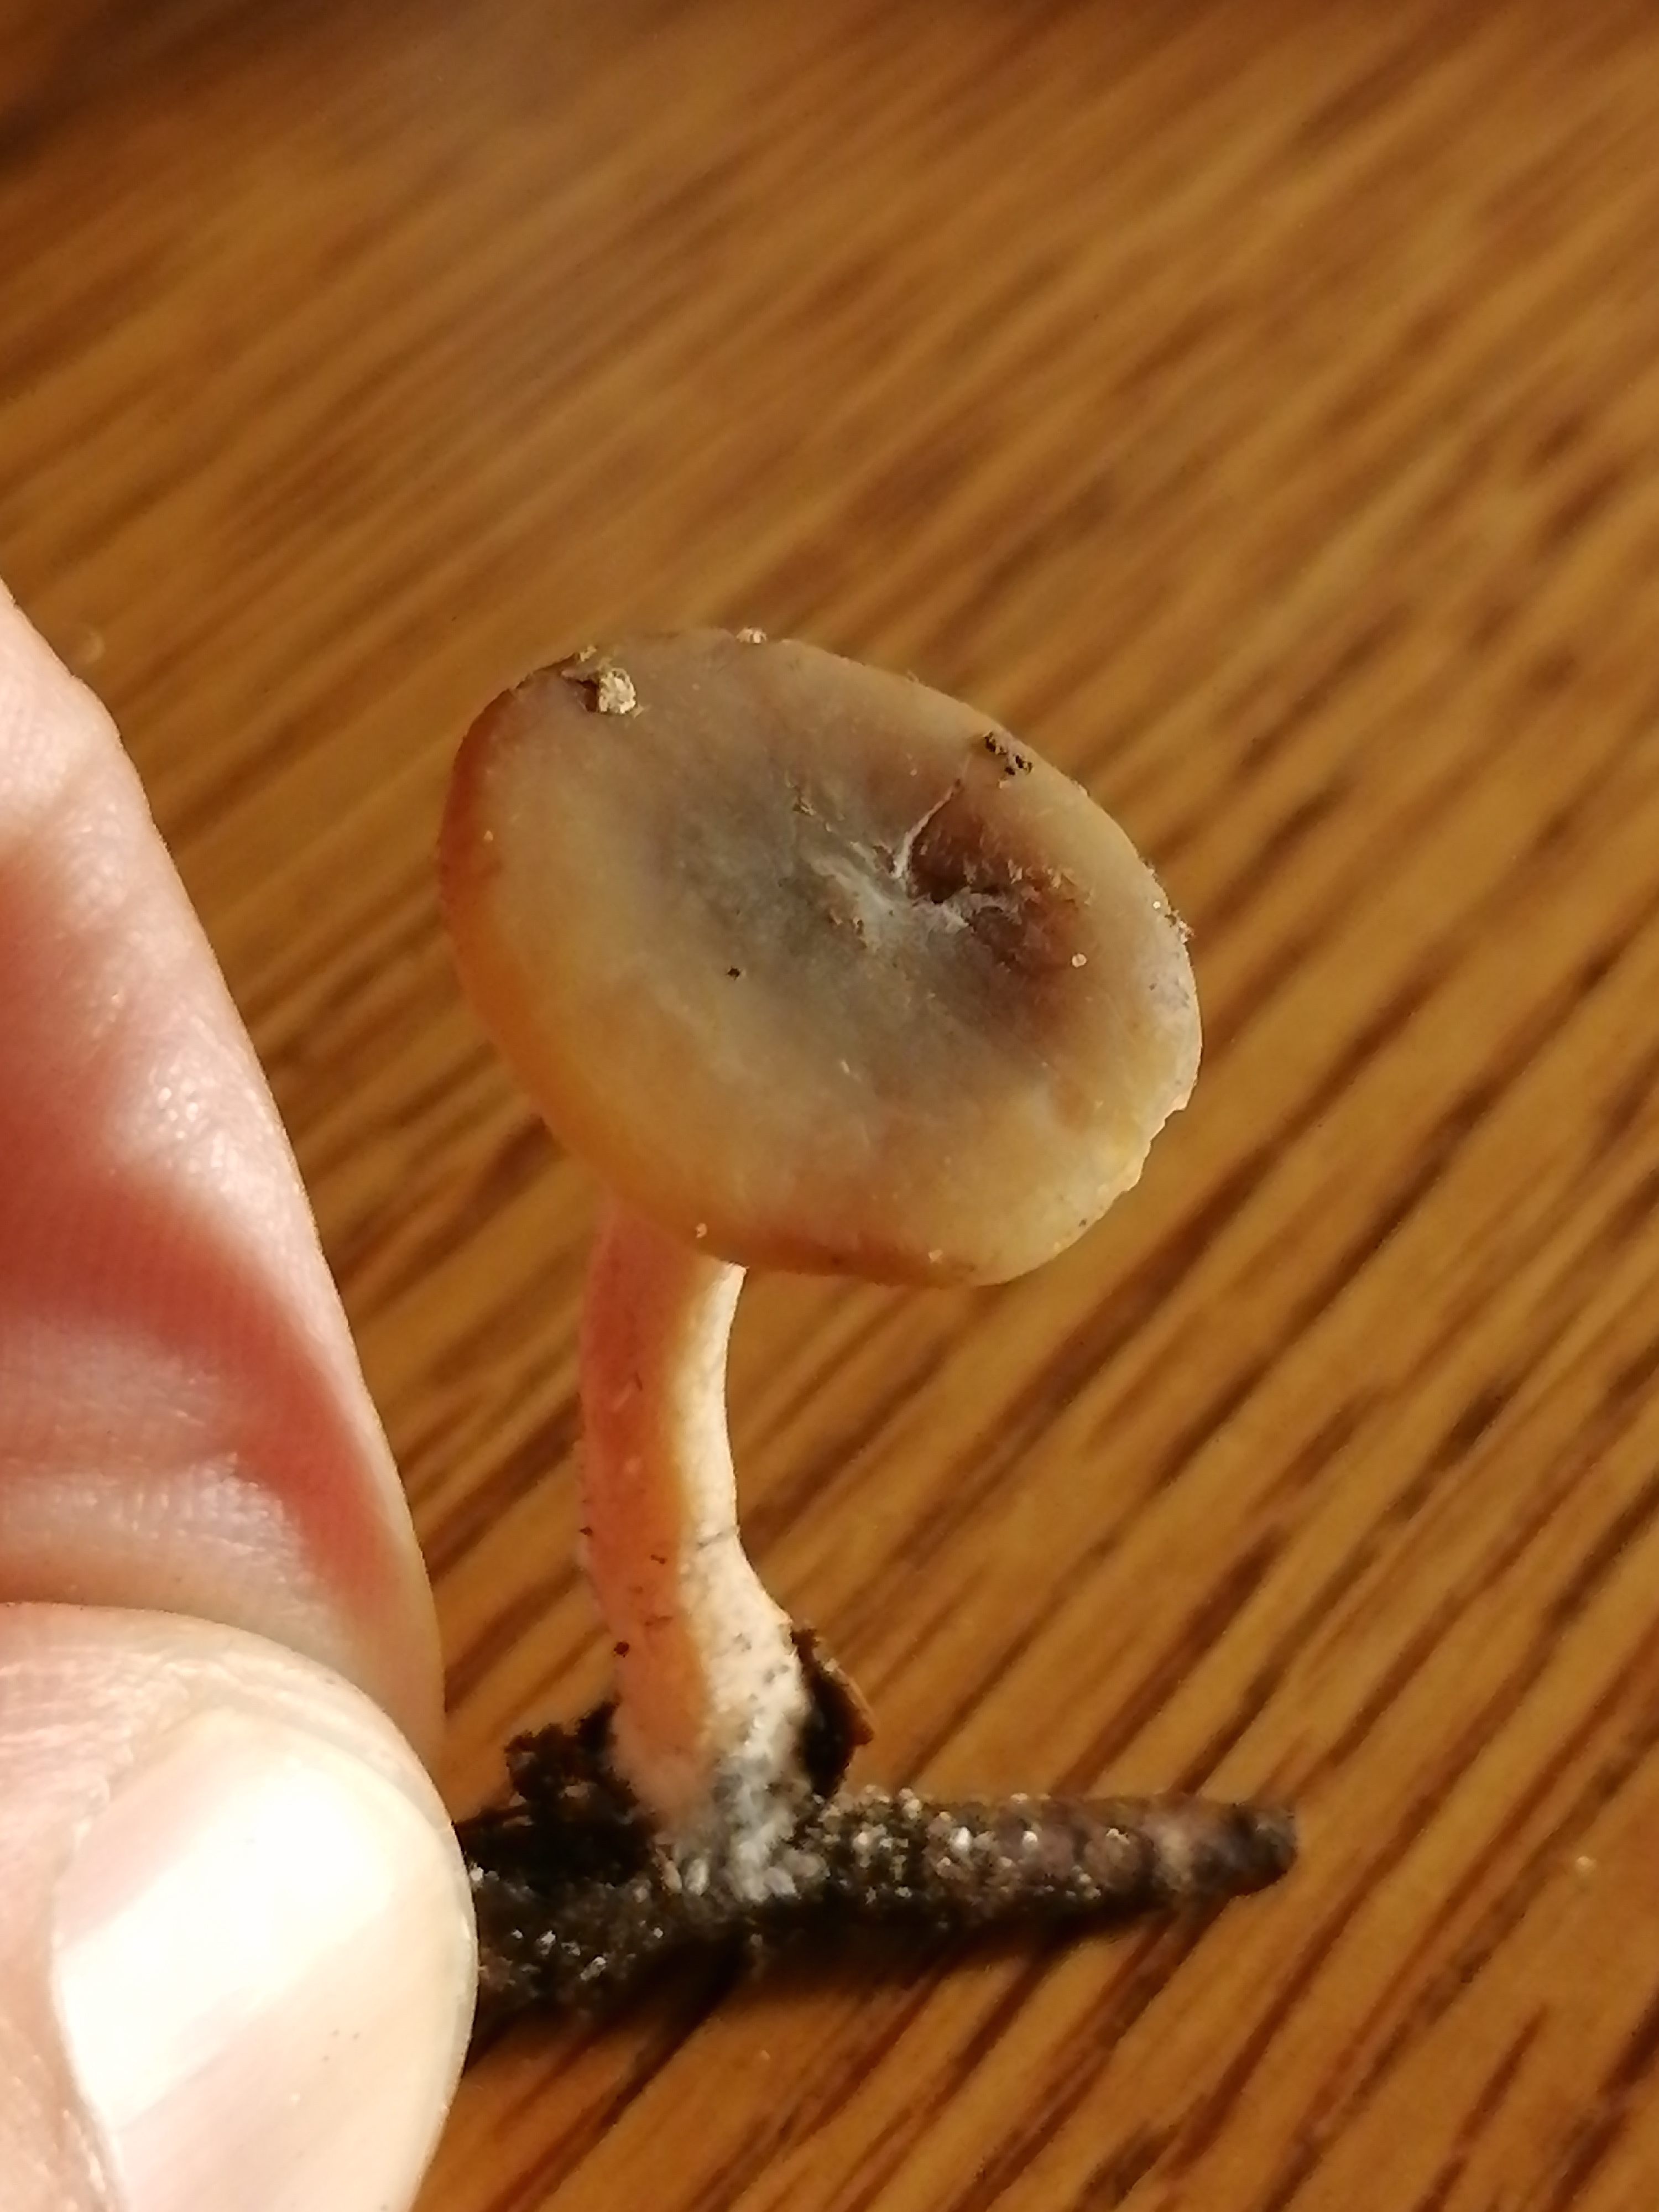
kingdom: Fungi
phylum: Basidiomycota
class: Agaricomycetes
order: Russulales
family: Russulaceae
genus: Lactarius
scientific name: Lactarius
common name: mælkehat
